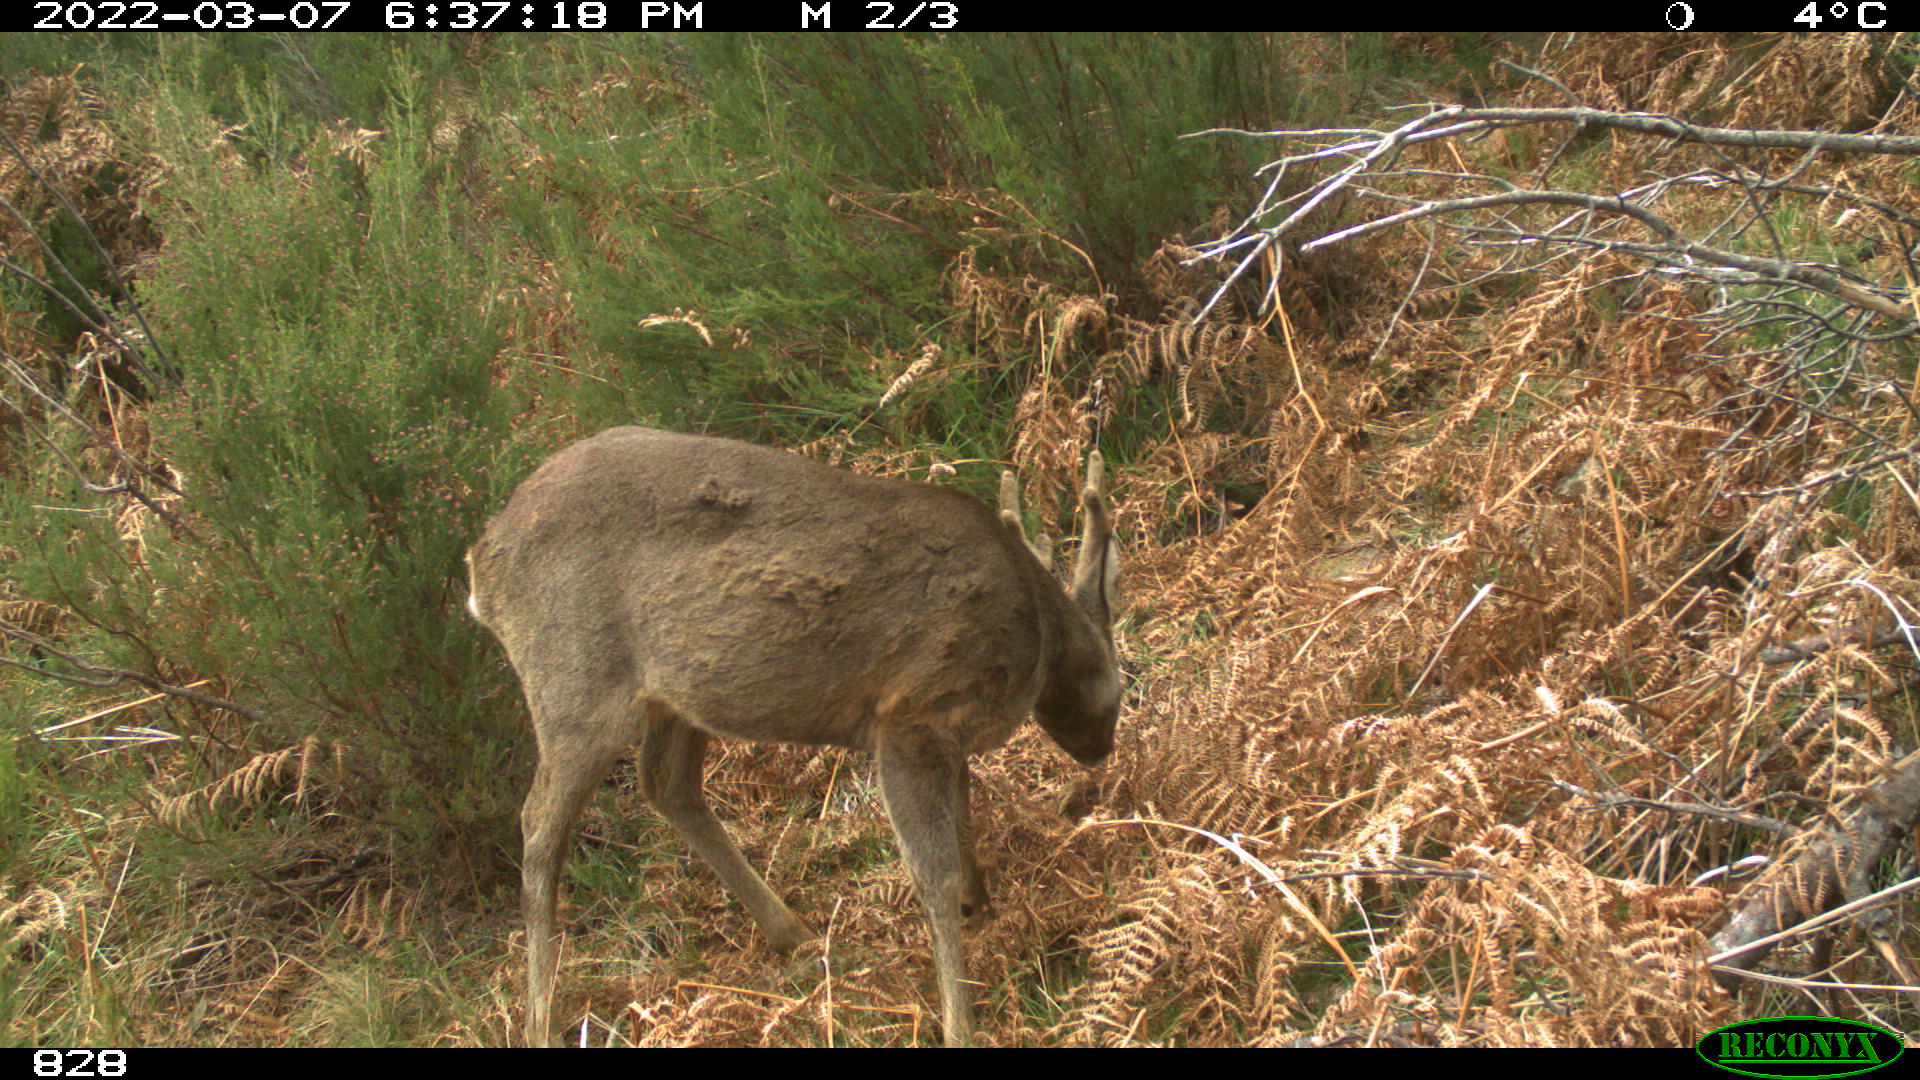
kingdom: Animalia
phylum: Chordata
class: Mammalia
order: Artiodactyla
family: Cervidae
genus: Capreolus
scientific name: Capreolus capreolus
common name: Western roe deer
